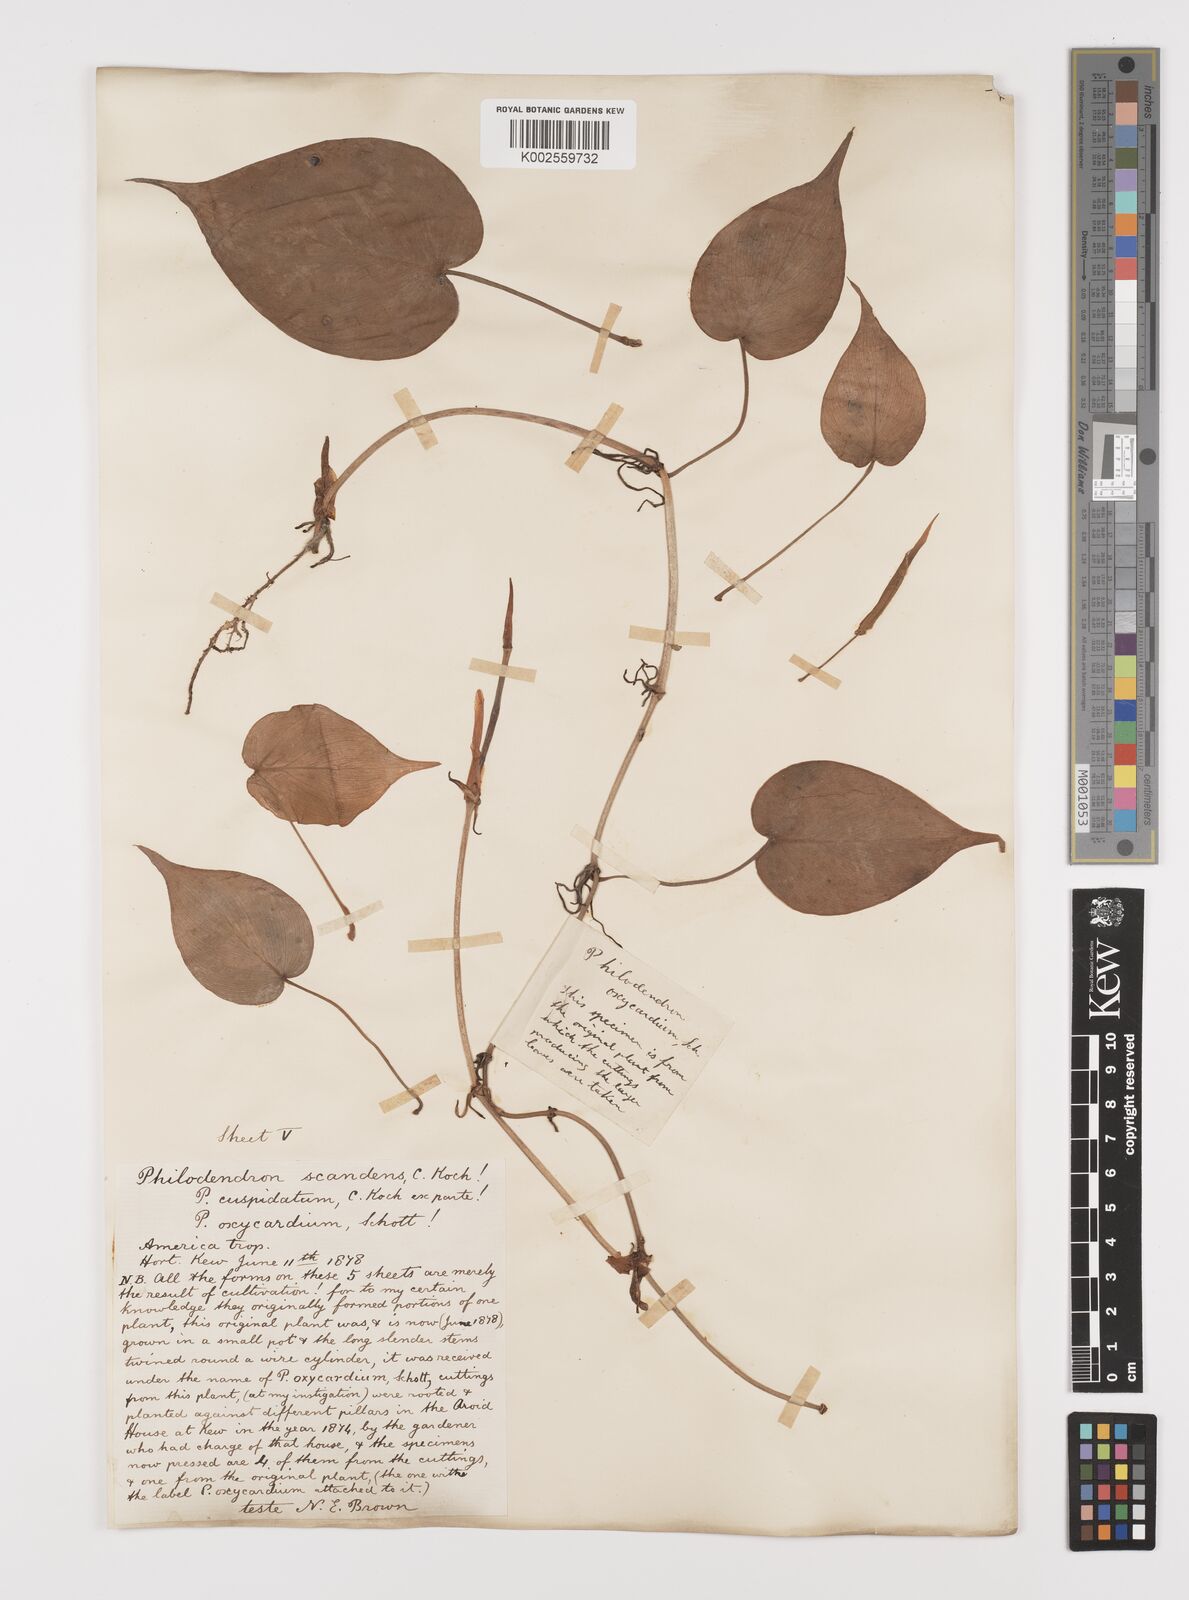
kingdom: Plantae
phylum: Tracheophyta
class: Liliopsida
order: Alismatales
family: Araceae
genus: Philodendron
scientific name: Philodendron hederaceum
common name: Vilevine
